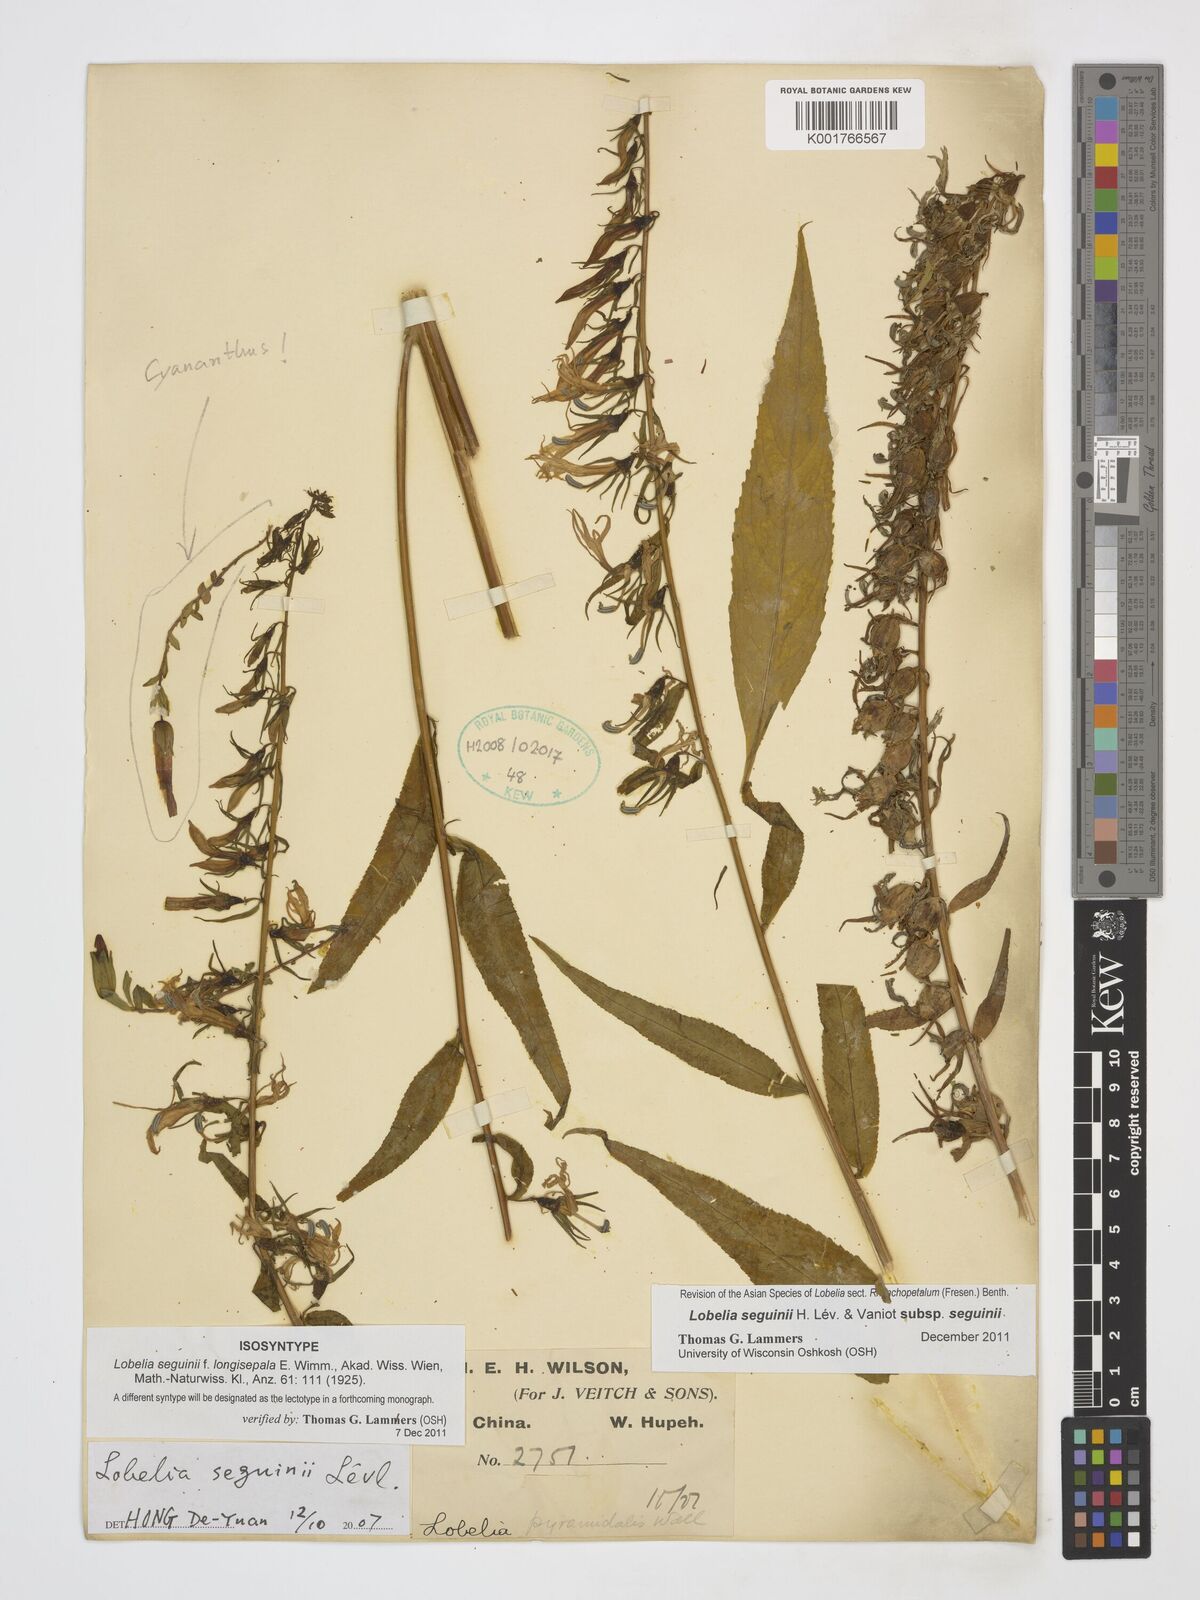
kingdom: Plantae
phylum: Tracheophyta
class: Magnoliopsida
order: Asterales
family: Campanulaceae
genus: Lobelia
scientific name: Lobelia seguinii
